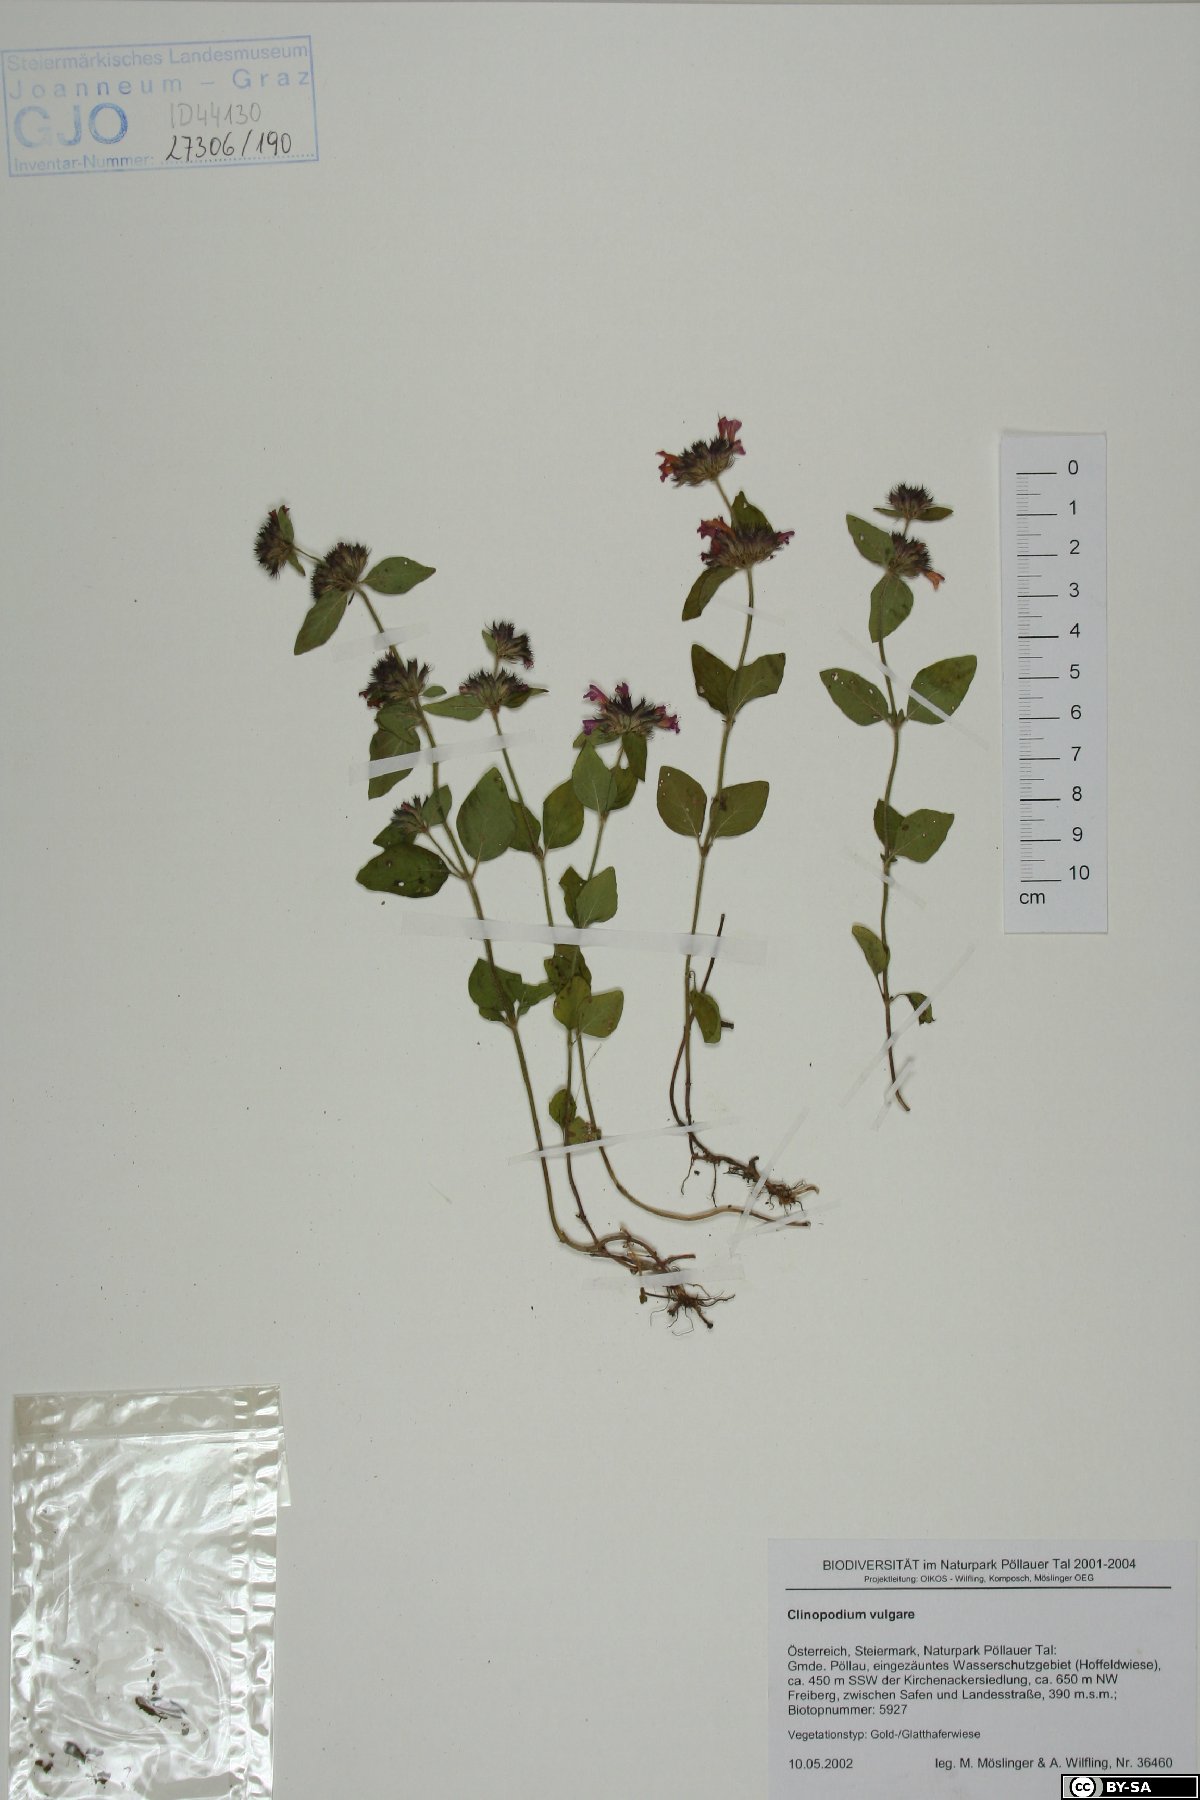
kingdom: Plantae
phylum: Tracheophyta
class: Magnoliopsida
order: Lamiales
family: Lamiaceae
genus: Clinopodium
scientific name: Clinopodium vulgare
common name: Wild basil
